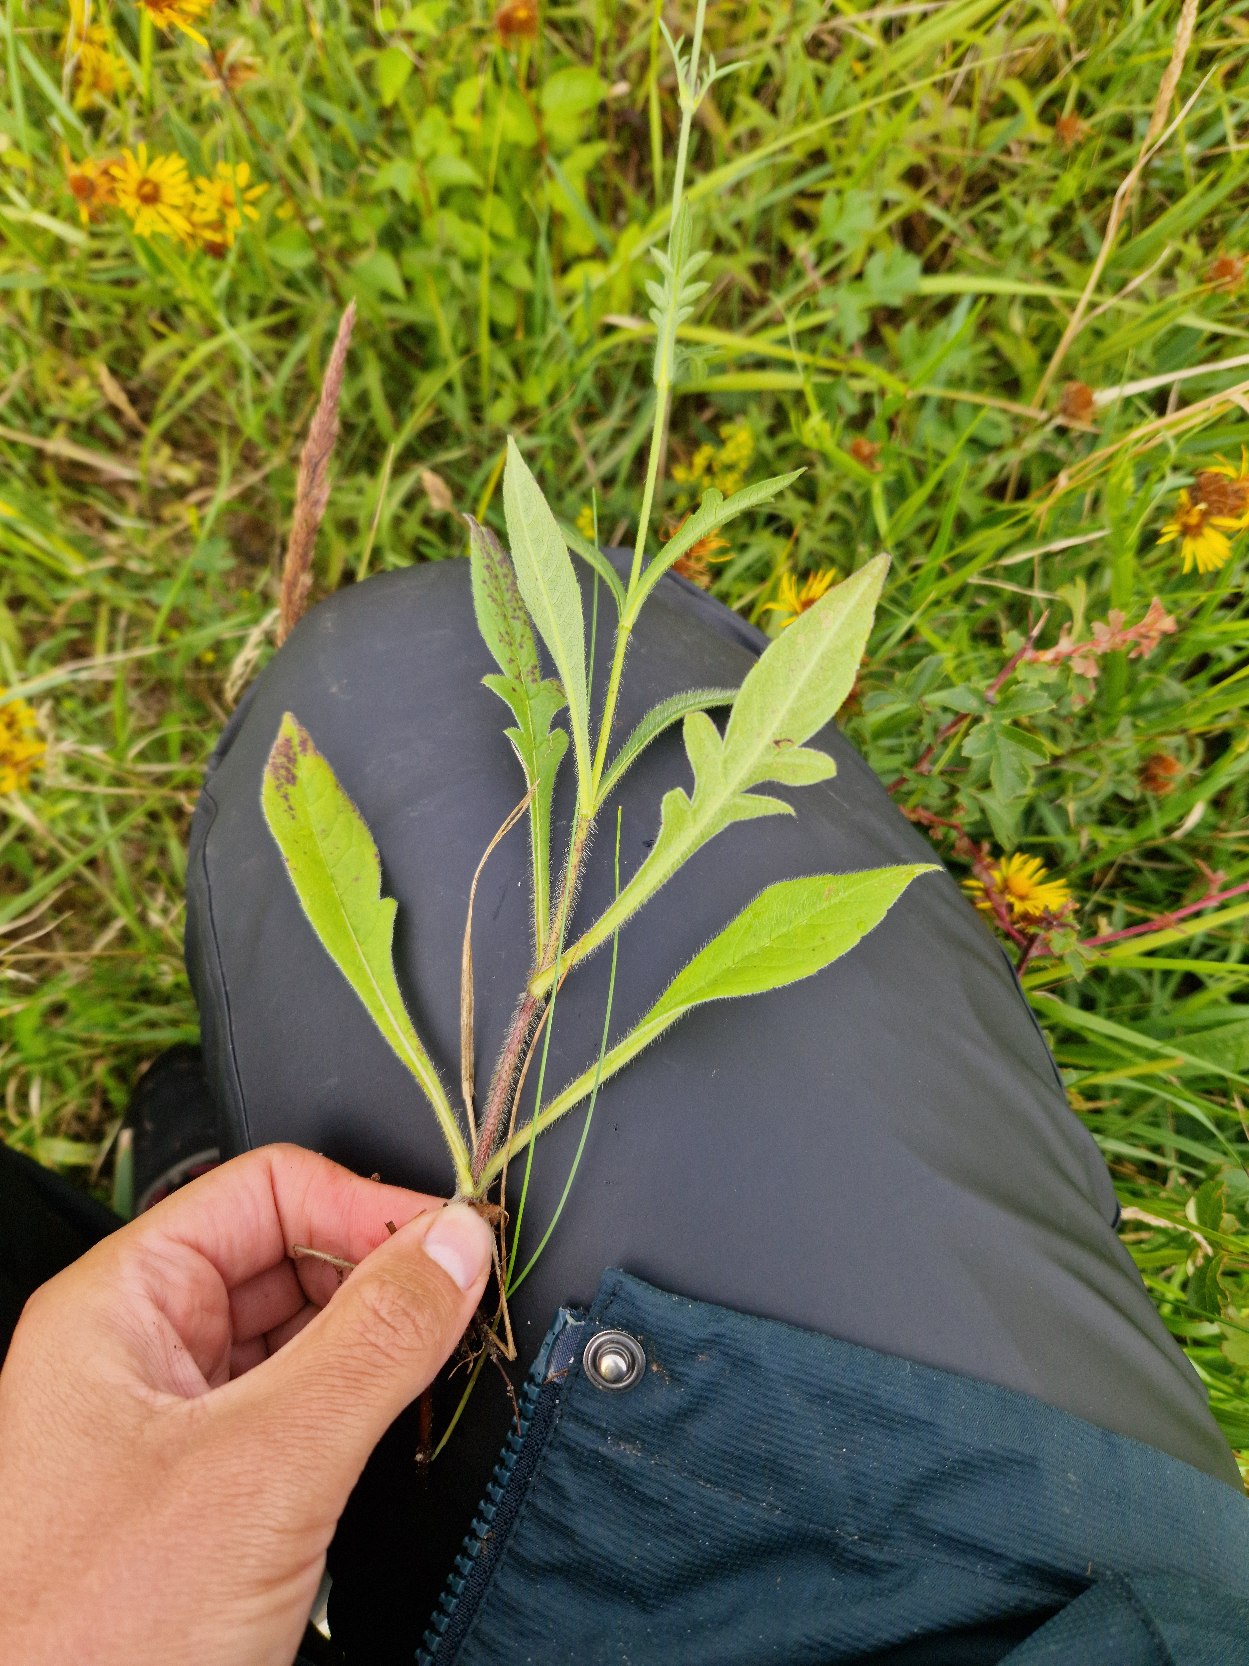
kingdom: Plantae
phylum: Tracheophyta
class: Magnoliopsida
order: Dipsacales
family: Caprifoliaceae
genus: Knautia
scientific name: Knautia arvensis
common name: Blåhat
